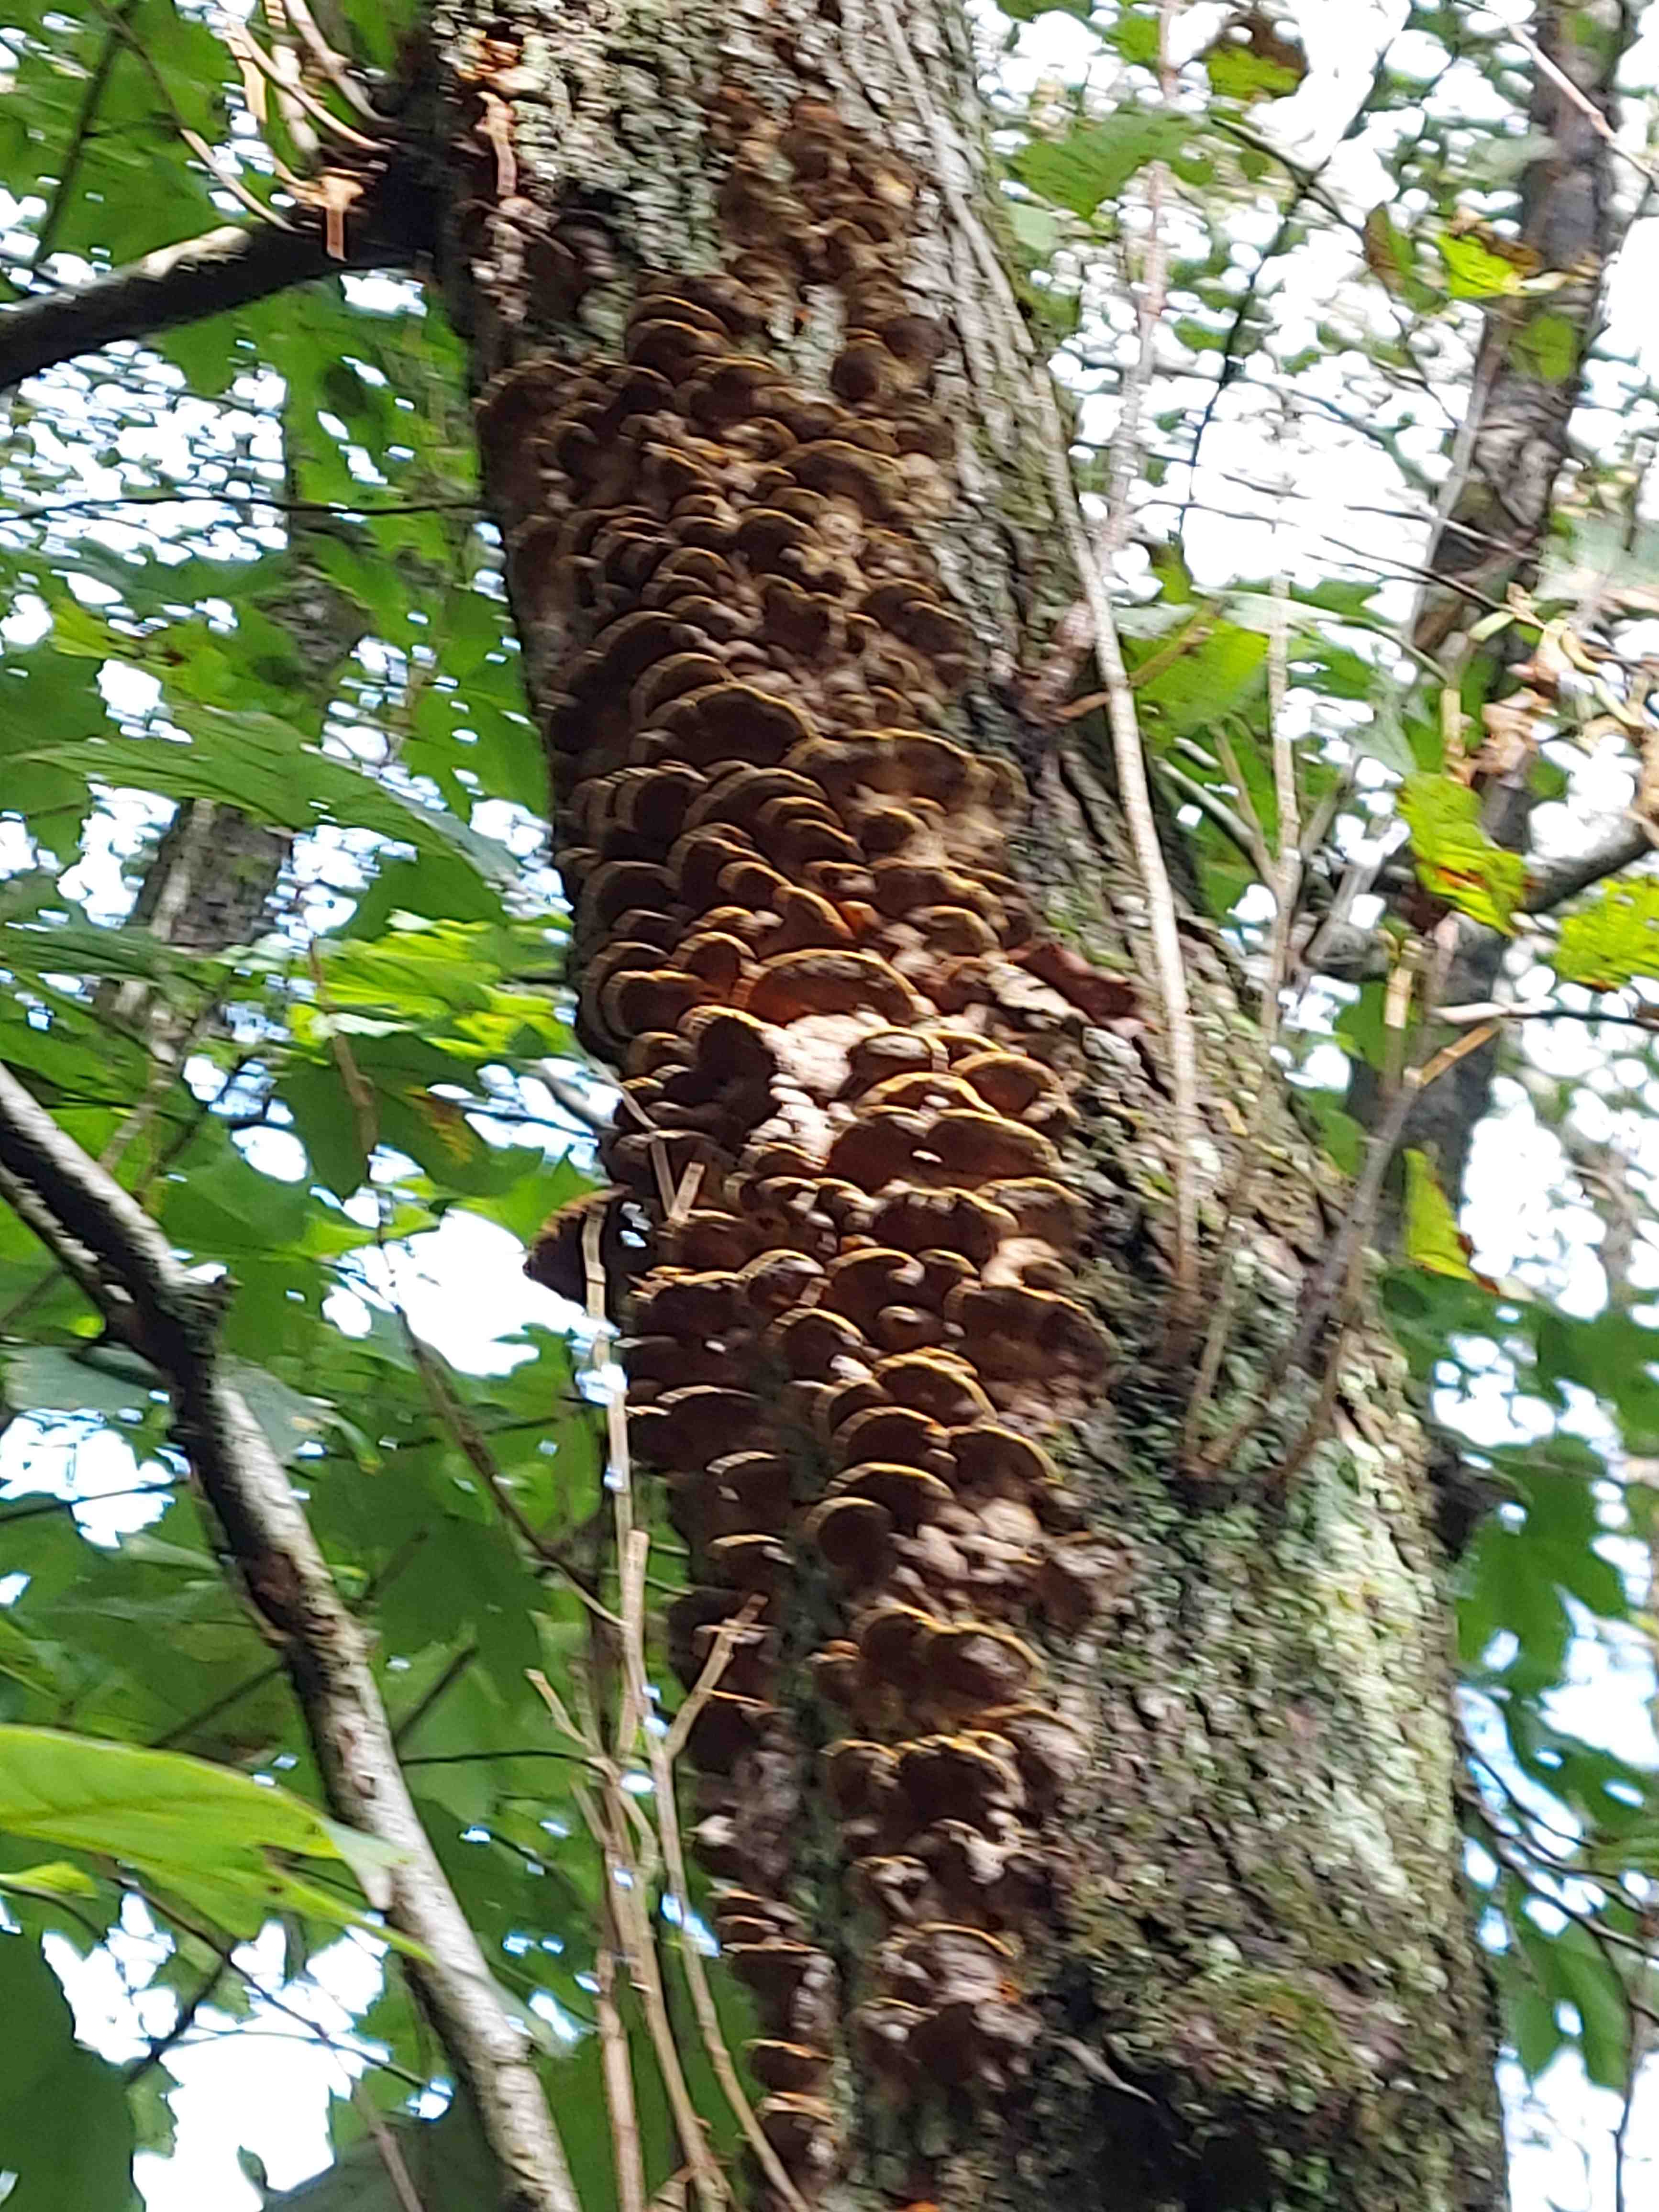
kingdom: Fungi
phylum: Basidiomycota
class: Agaricomycetes
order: Hymenochaetales
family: Hymenochaetaceae
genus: Xanthoporia
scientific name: Xanthoporia radiata
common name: elle-spejlporesvamp
